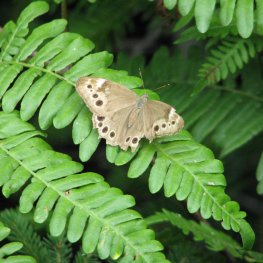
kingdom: Animalia
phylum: Arthropoda
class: Insecta
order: Lepidoptera
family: Nymphalidae
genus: Lethe
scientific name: Lethe anthedon
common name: Northern Pearly-Eye
